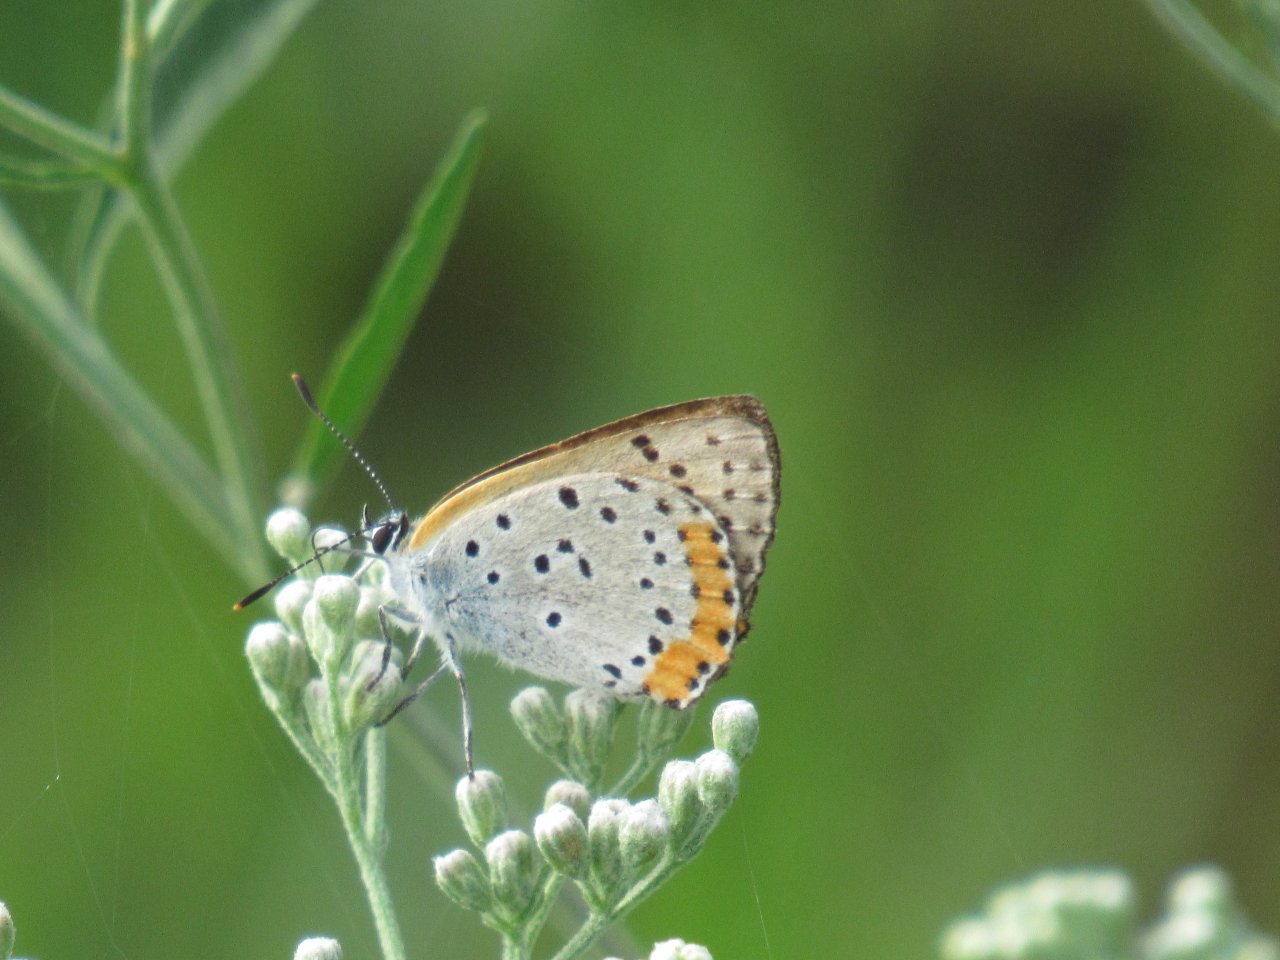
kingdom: Animalia
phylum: Arthropoda
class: Insecta
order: Lepidoptera
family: Sesiidae
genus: Sesia
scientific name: Sesia Lycaena hyllus
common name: Bronze Copper
